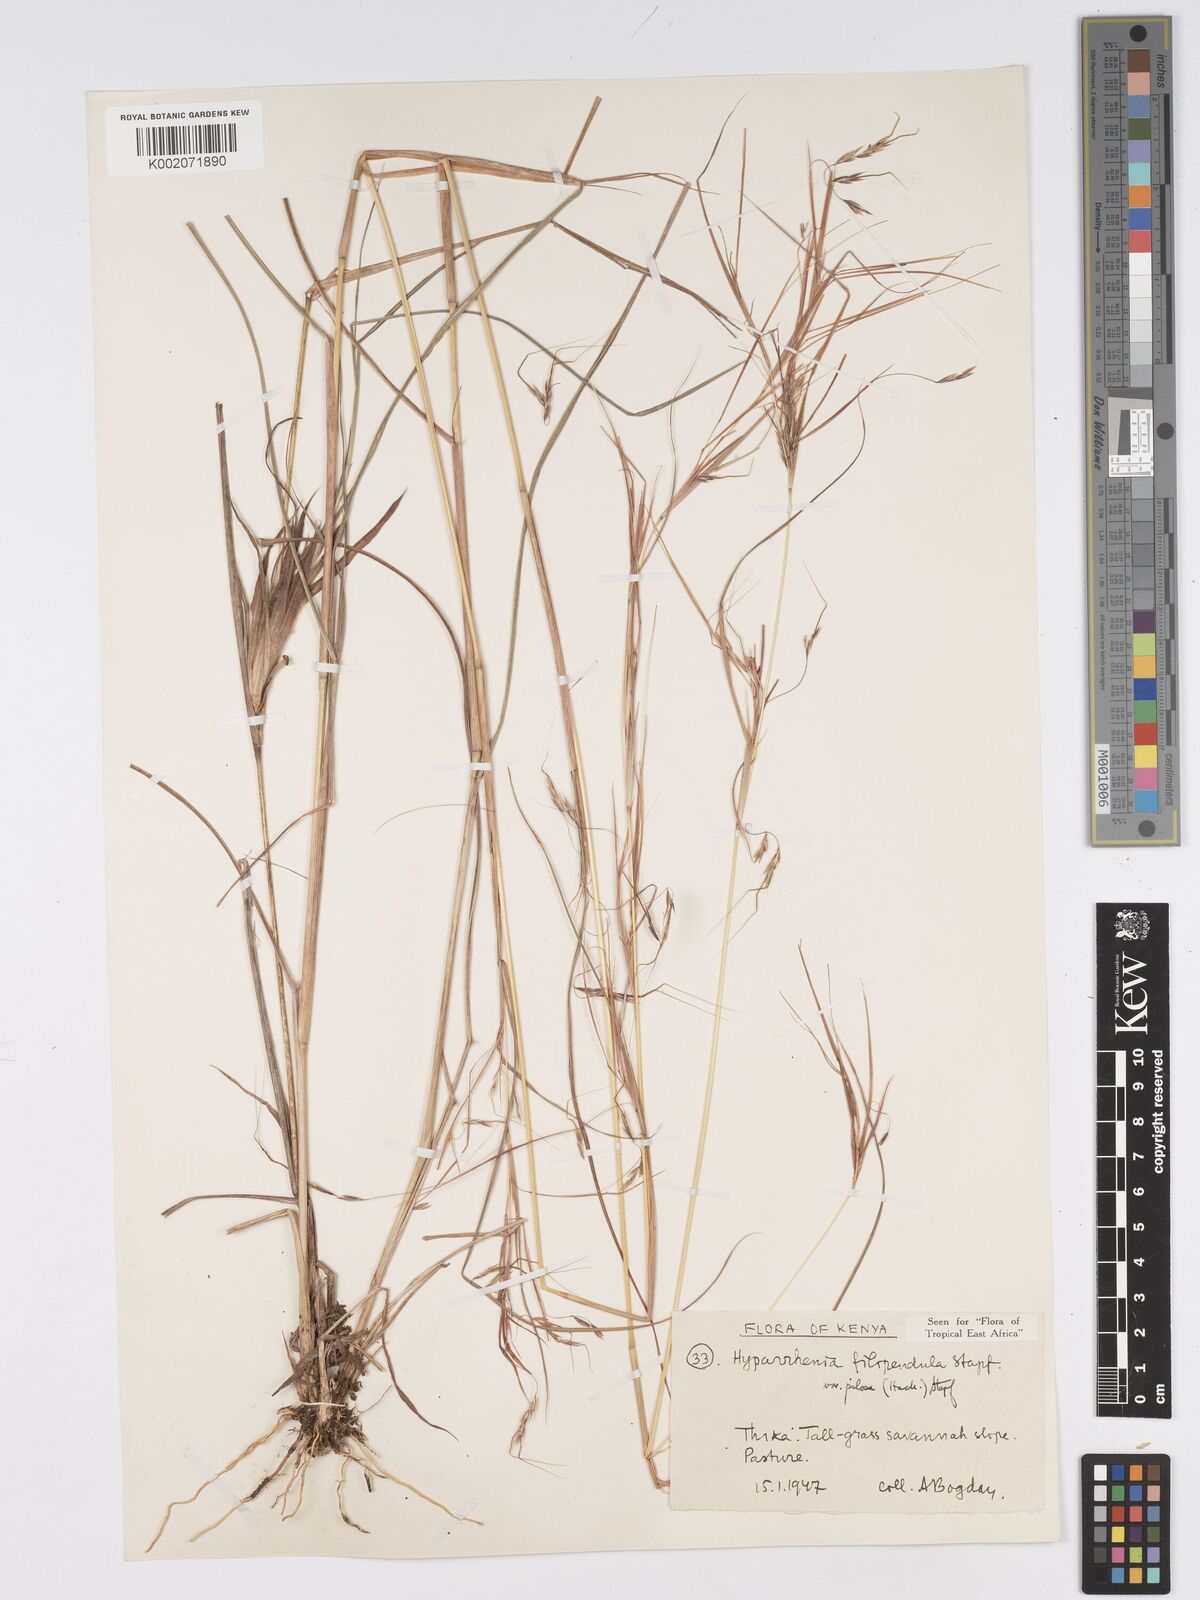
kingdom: Plantae
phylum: Tracheophyta
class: Liliopsida
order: Poales
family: Poaceae
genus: Hyparrhenia
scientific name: Hyparrhenia filipendula
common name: Tambookie grass
